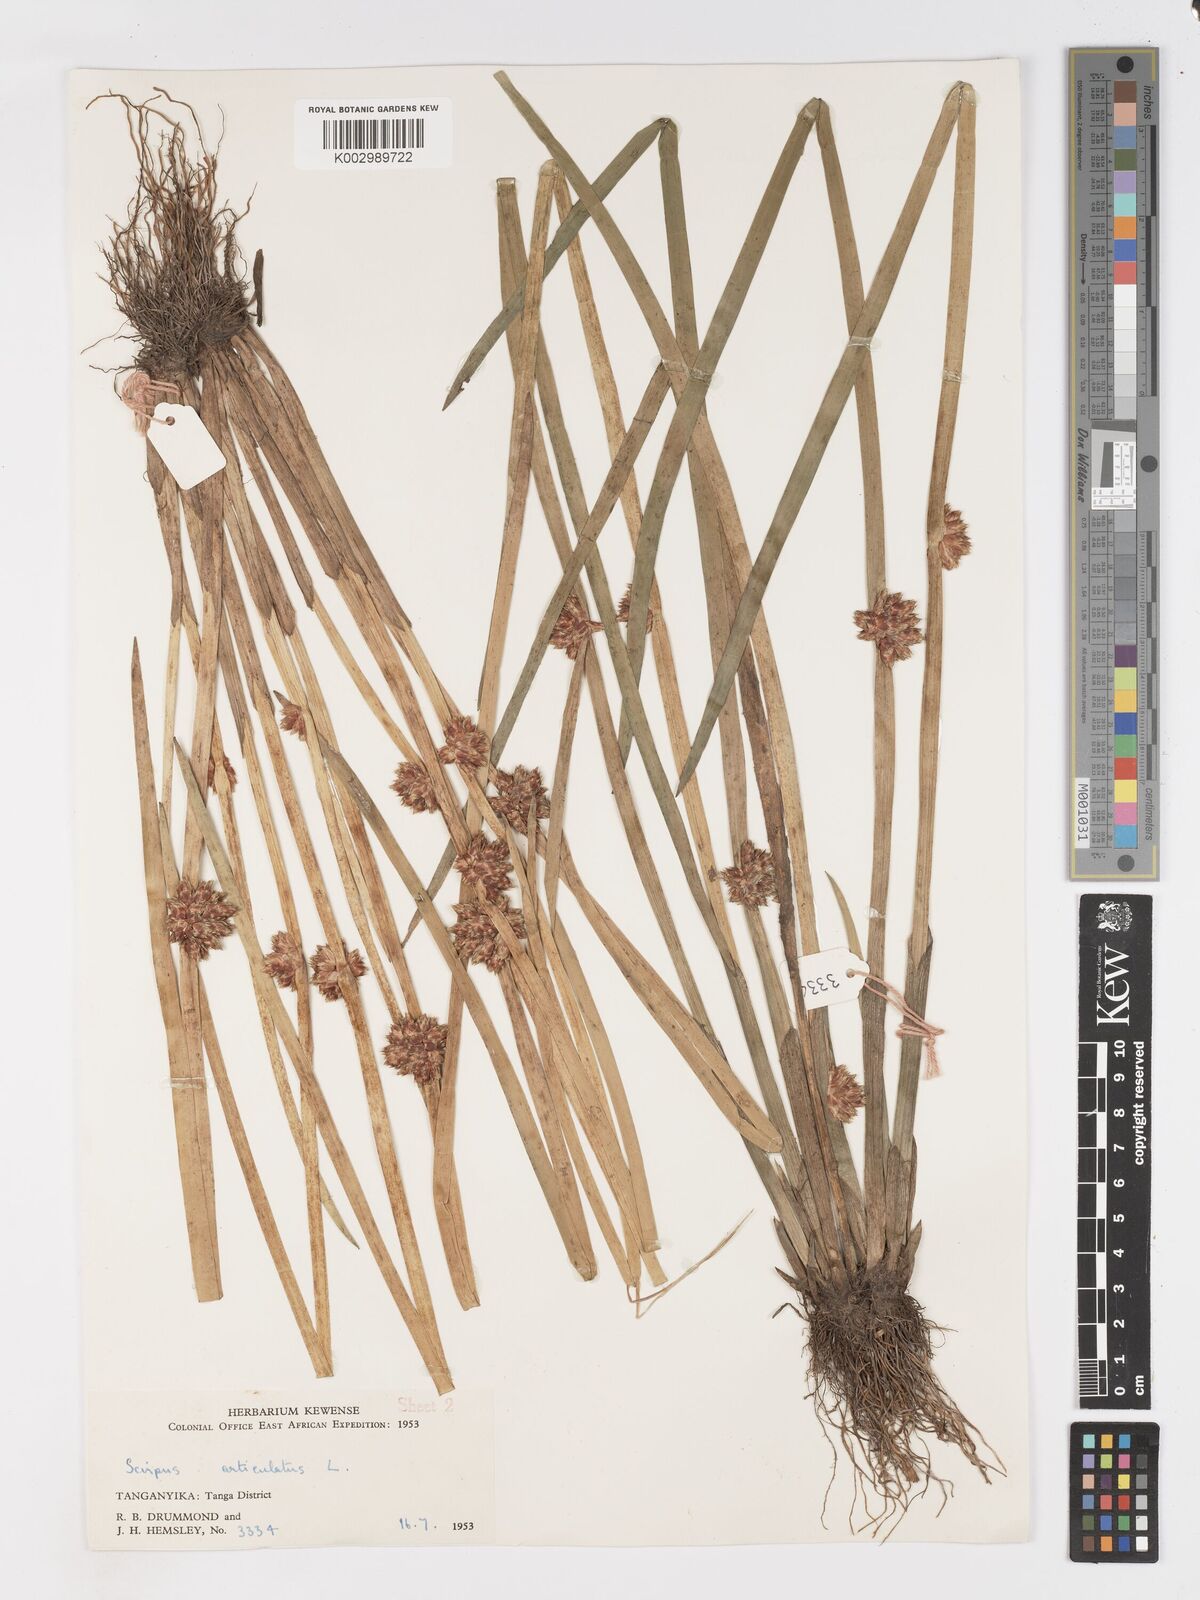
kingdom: Plantae
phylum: Tracheophyta
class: Liliopsida
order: Poales
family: Cyperaceae
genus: Schoenoplectiella
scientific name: Schoenoplectiella articulata
